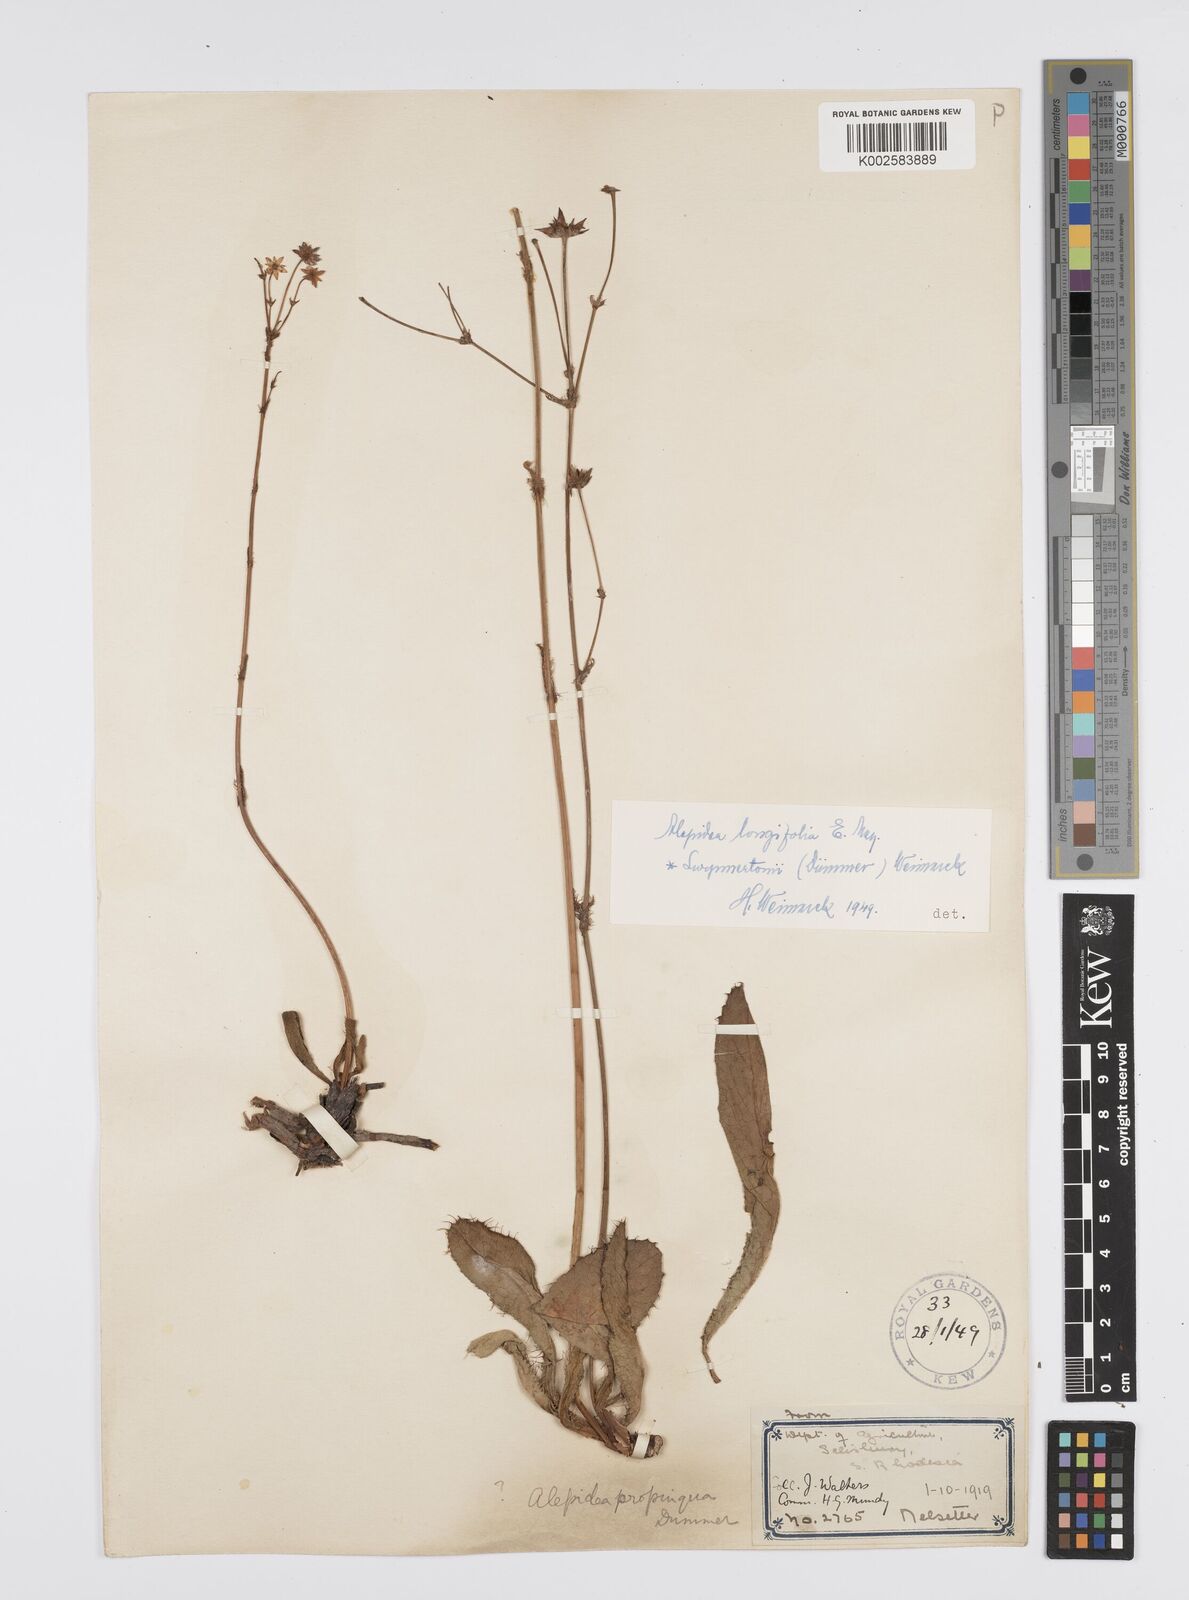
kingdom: Plantae
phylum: Tracheophyta
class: Magnoliopsida
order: Apiales
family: Apiaceae
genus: Alepidea
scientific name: Alepidea
